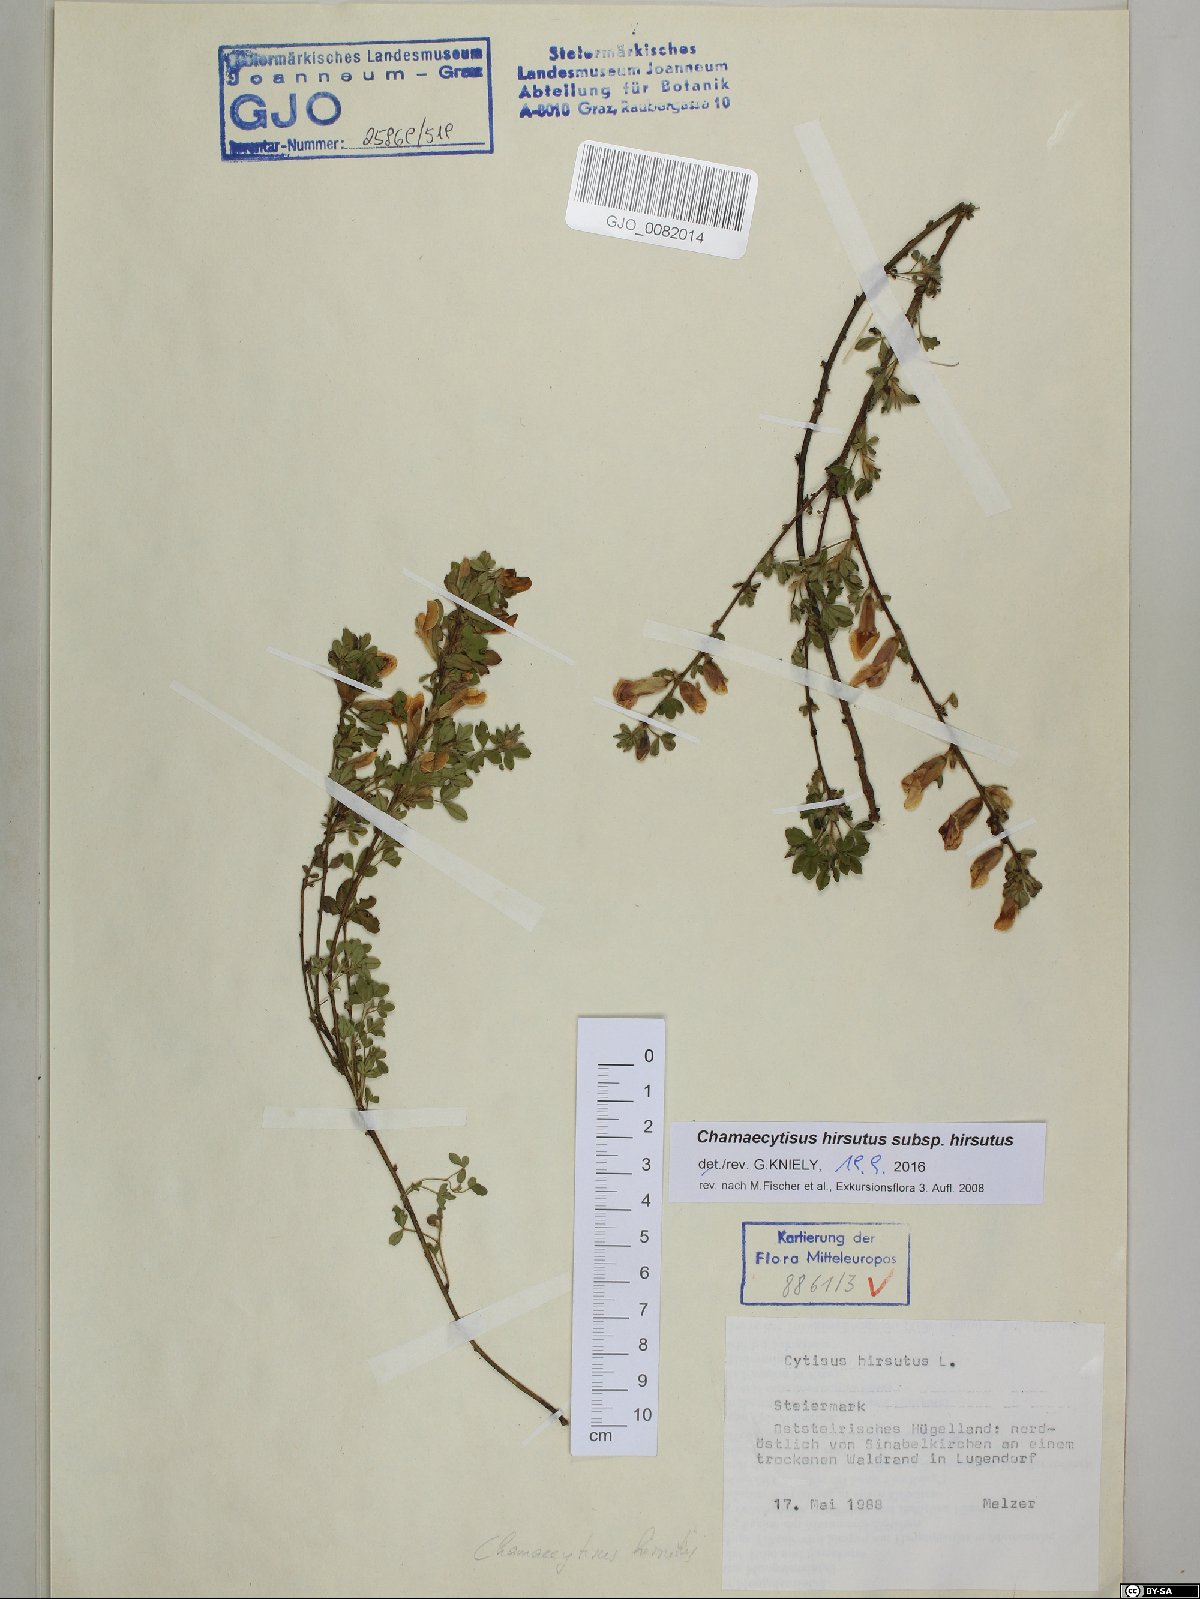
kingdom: Plantae
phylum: Tracheophyta
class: Magnoliopsida
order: Fabales
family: Fabaceae
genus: Chamaecytisus
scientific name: Chamaecytisus hirsutus
